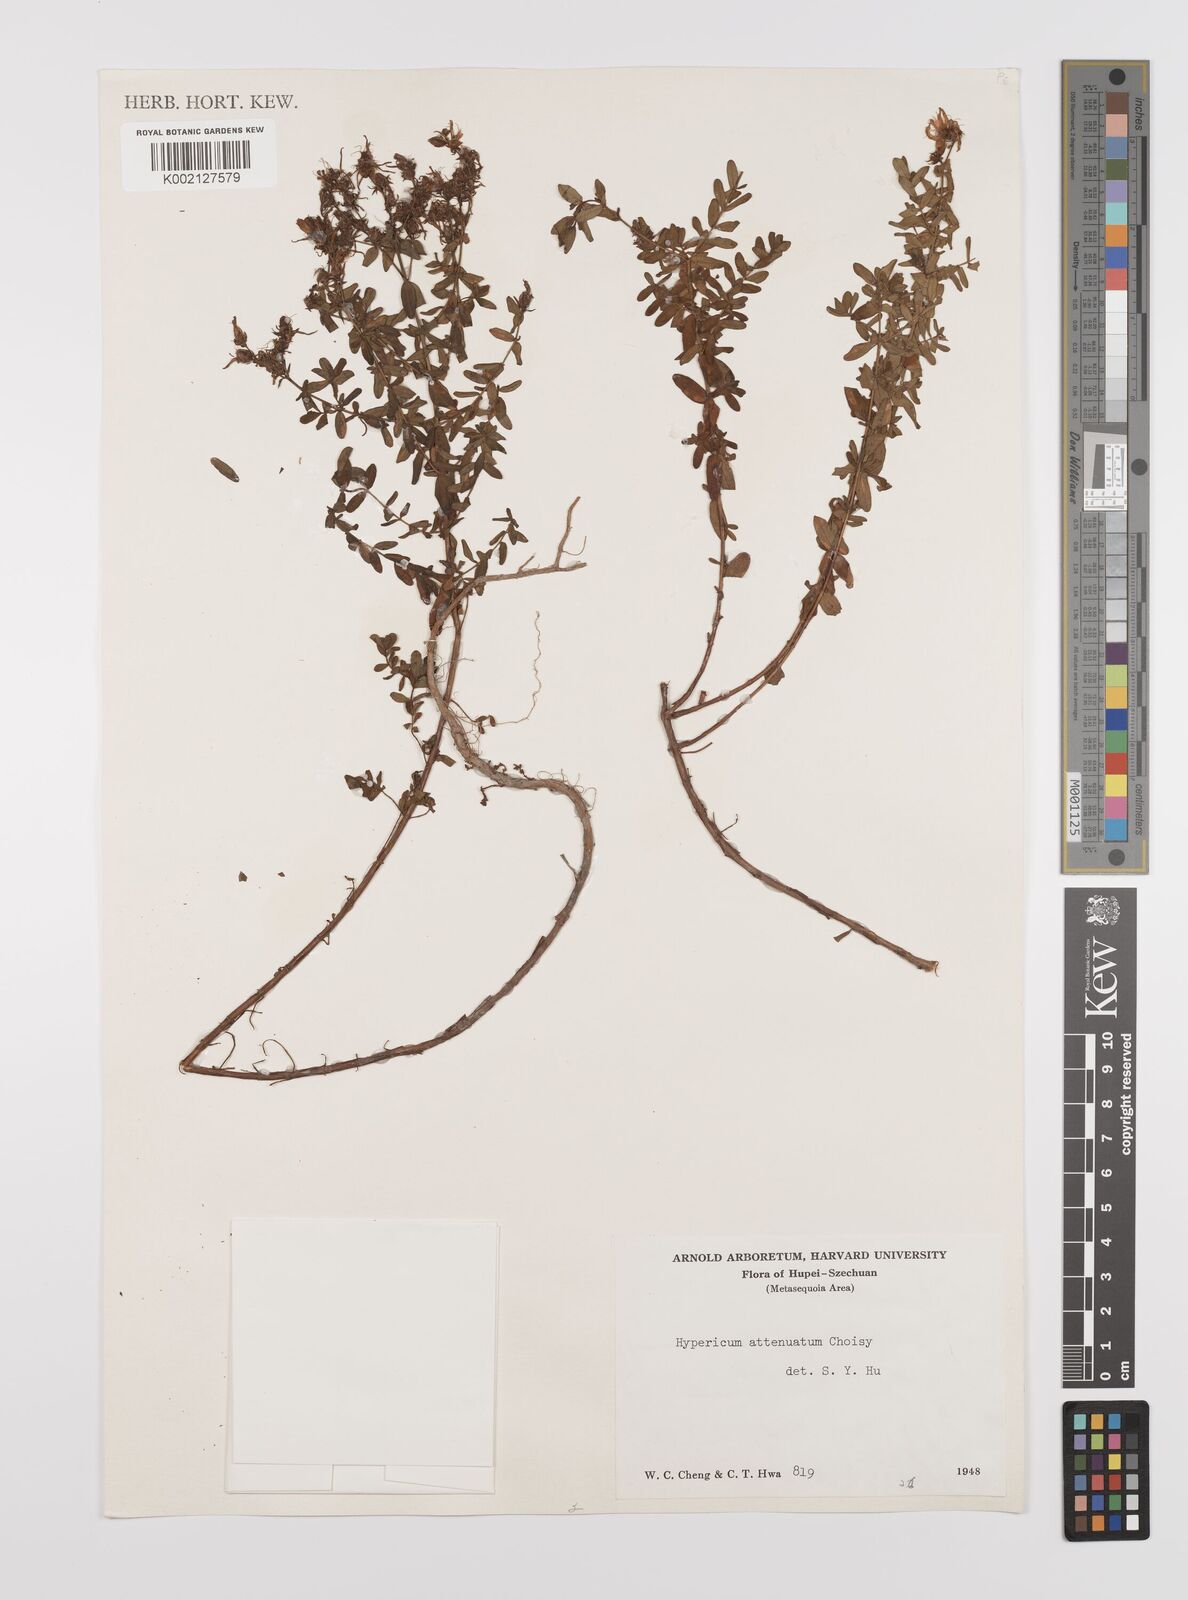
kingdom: Plantae
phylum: Tracheophyta
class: Magnoliopsida
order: Malpighiales
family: Hypericaceae
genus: Hypericum
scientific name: Hypericum perforatum
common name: Common st. johnswort
